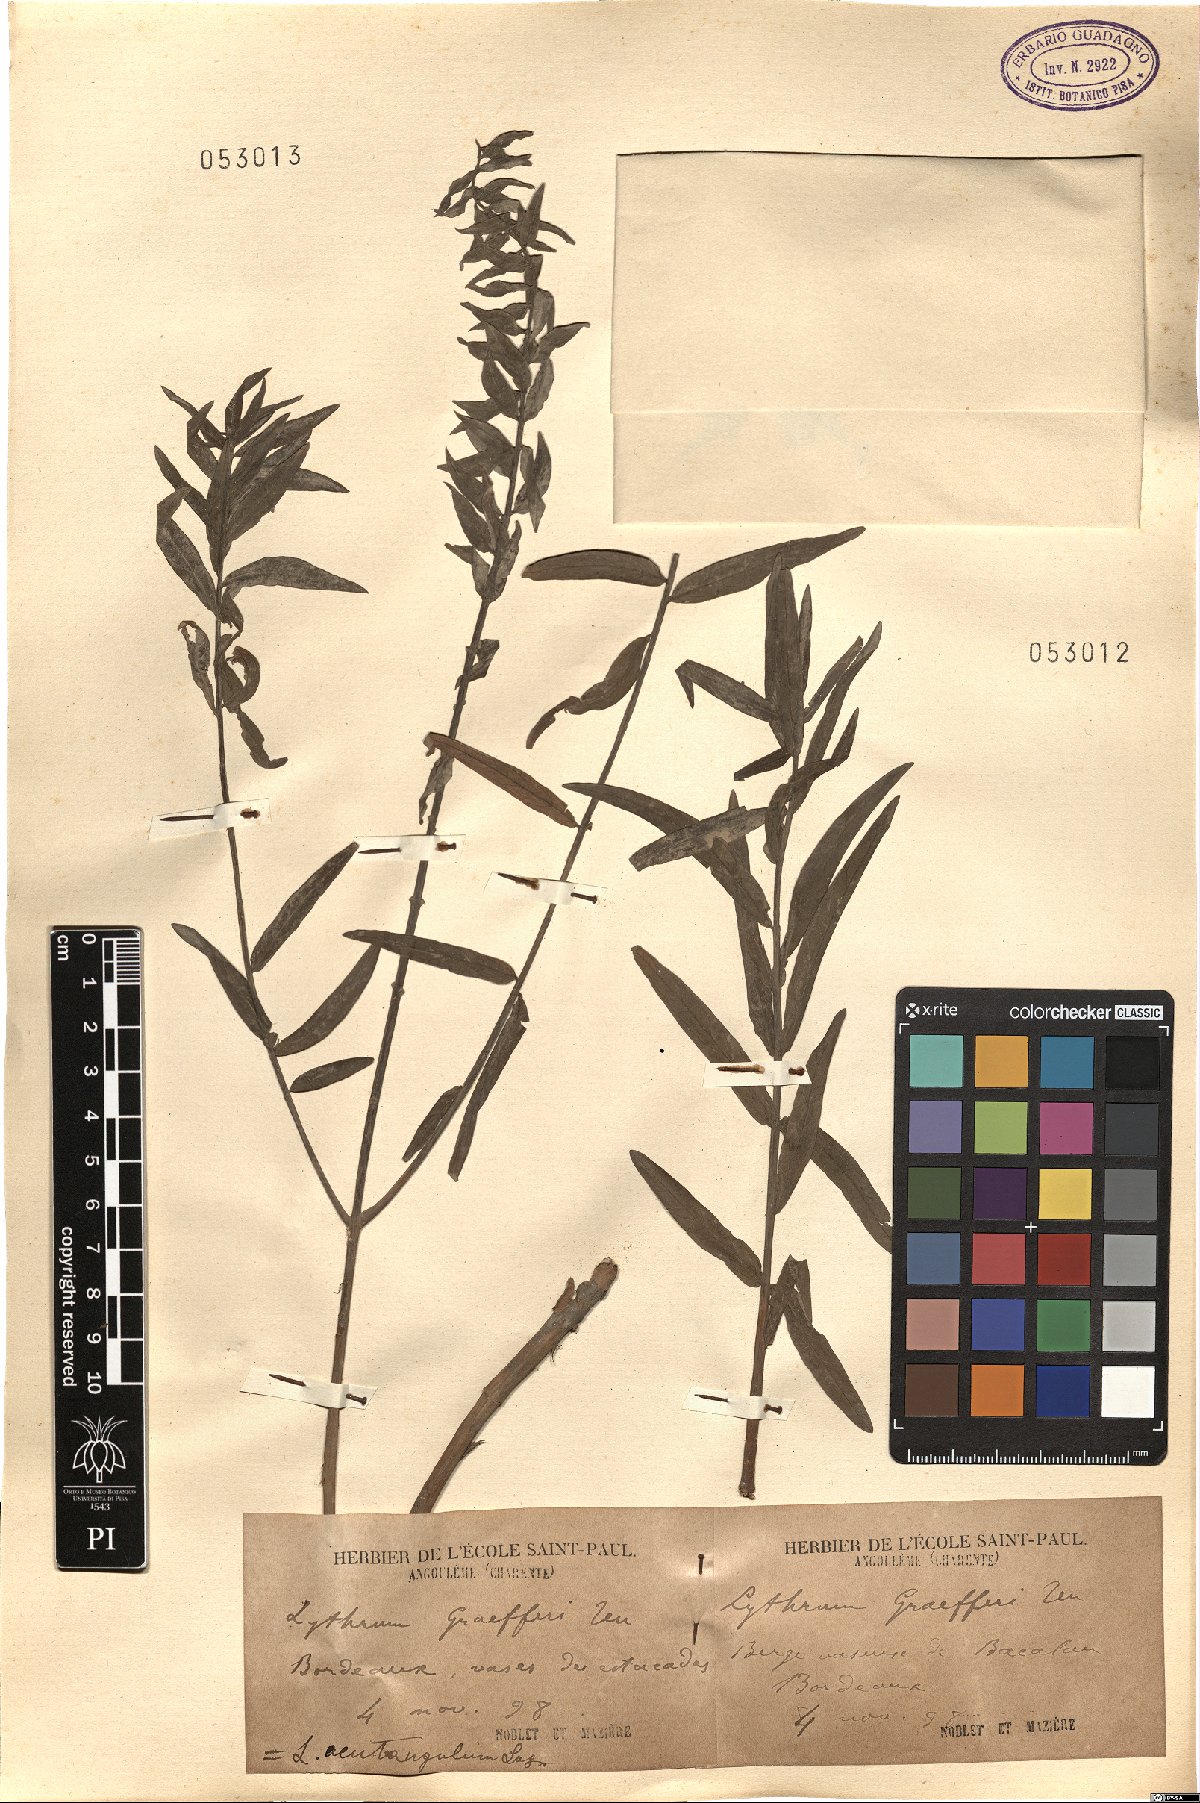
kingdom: Plantae
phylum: Tracheophyta
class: Magnoliopsida
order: Myrtales
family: Lythraceae
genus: Lythrum
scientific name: Lythrum junceum
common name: False grass-poly
